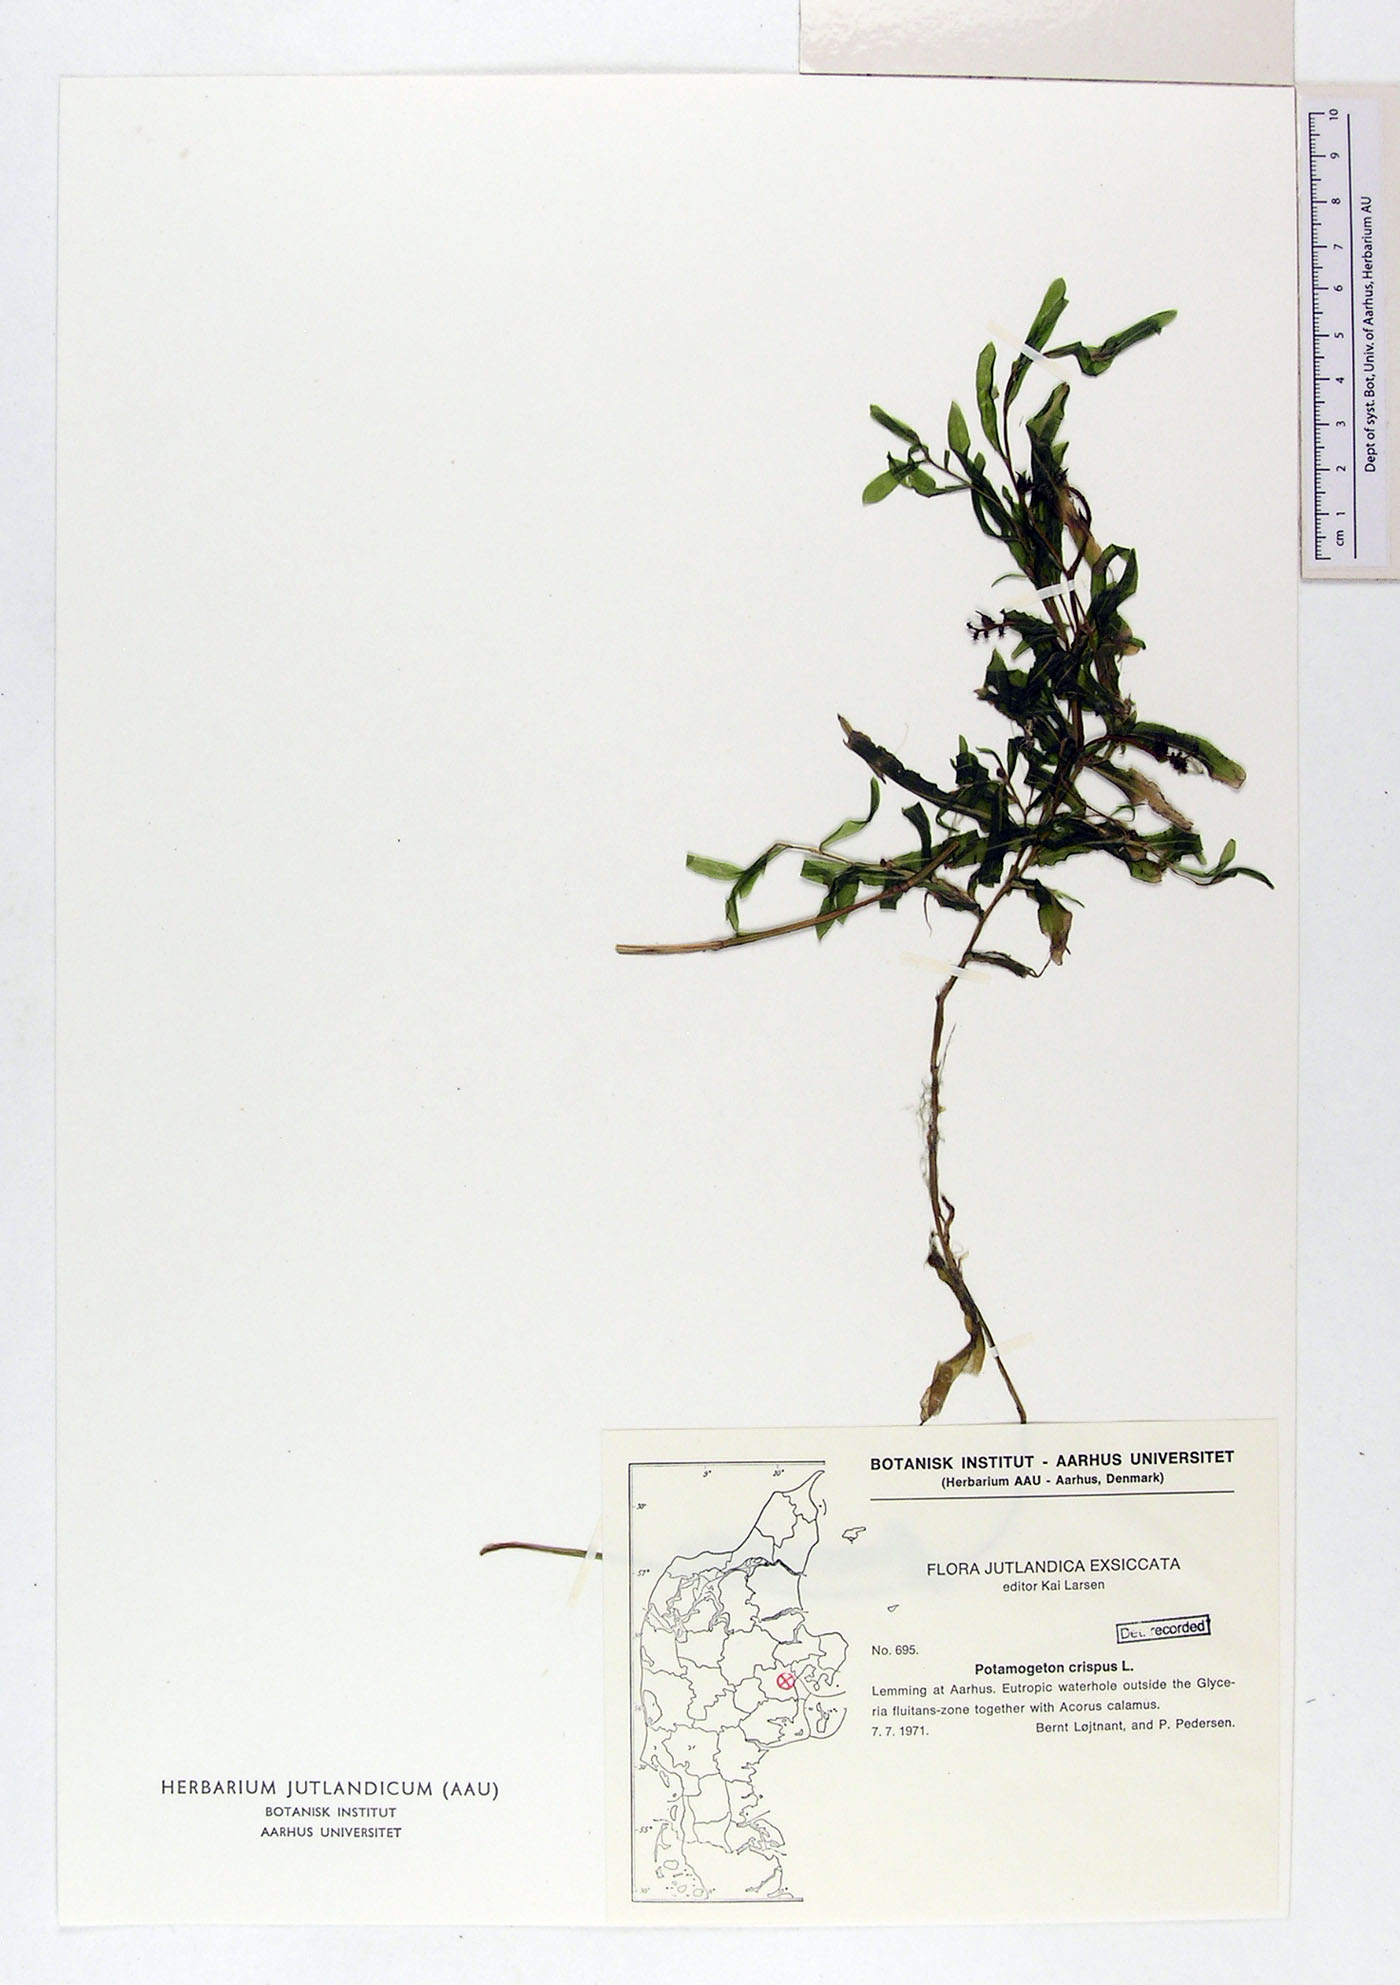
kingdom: Plantae
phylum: Tracheophyta
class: Liliopsida
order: Alismatales
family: Potamogetonaceae
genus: Potamogeton
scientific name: Potamogeton crispus
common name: Curled pondweed
